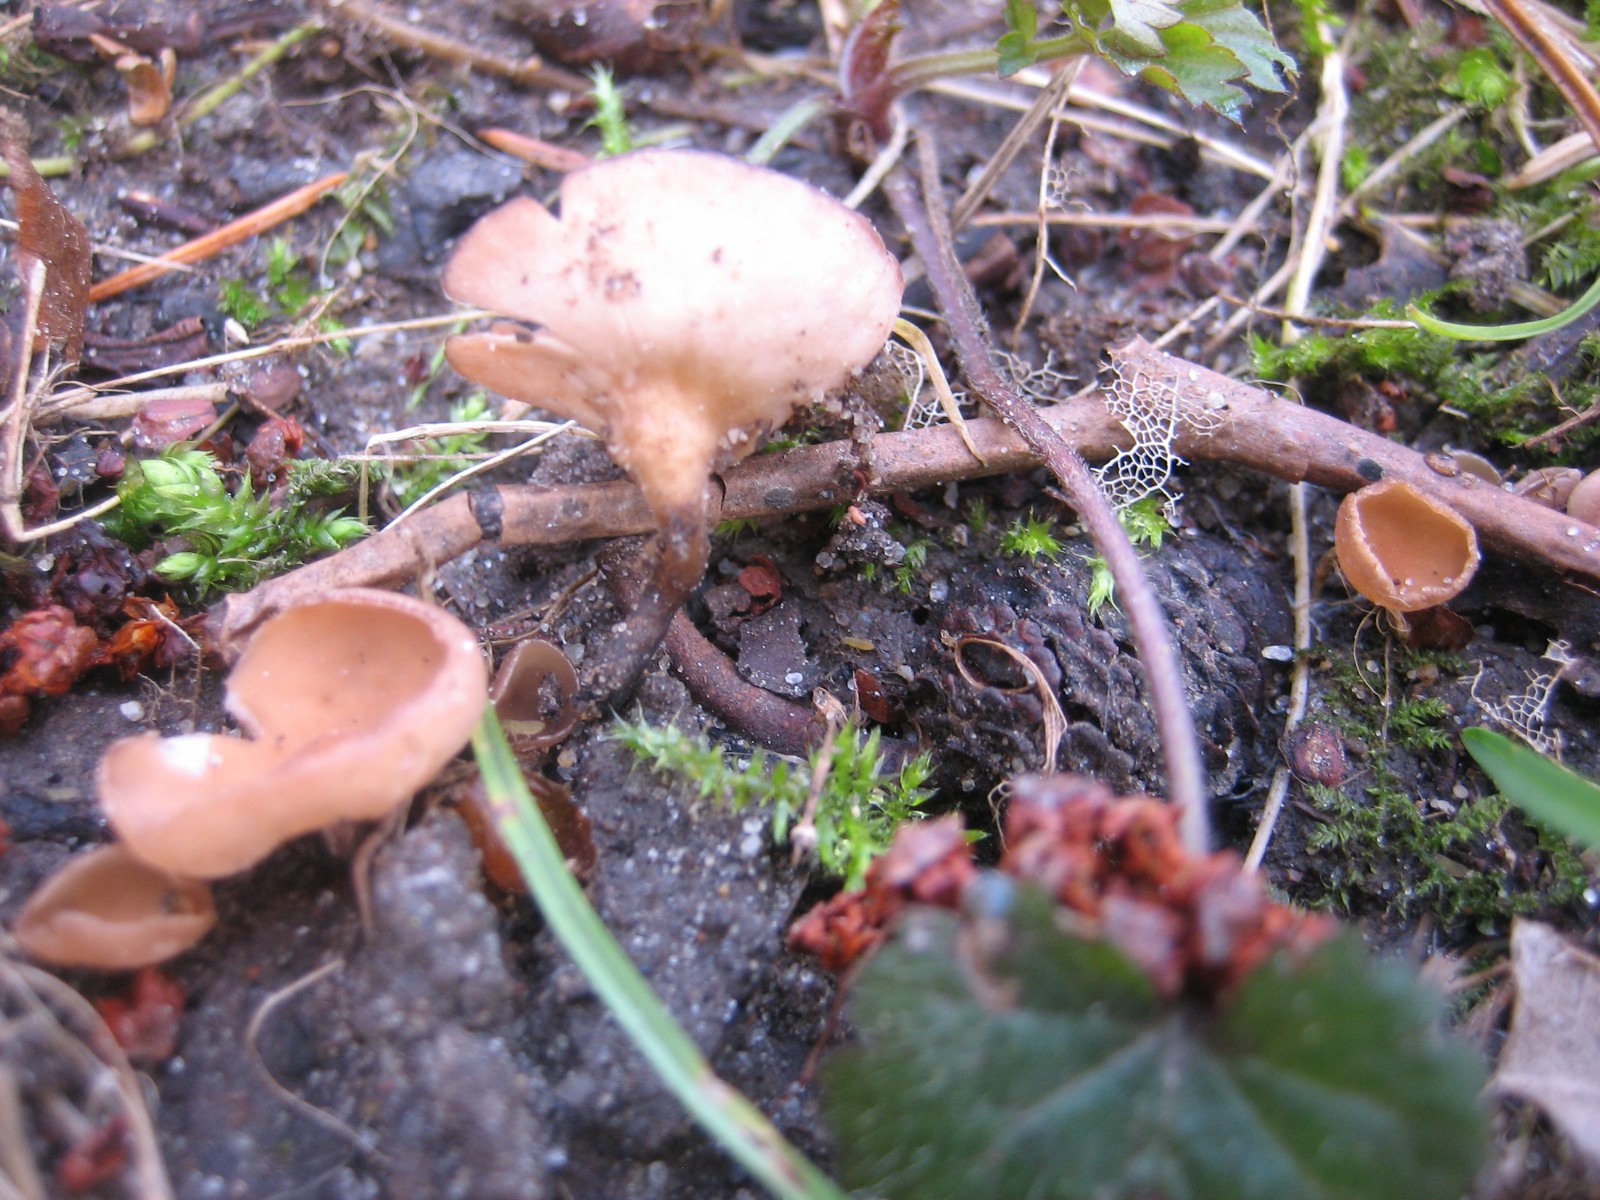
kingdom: Fungi
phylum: Ascomycota
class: Leotiomycetes
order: Helotiales
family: Sclerotiniaceae
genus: Ciboria
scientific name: Ciboria amentacea
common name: ellerakle-knoldskive
